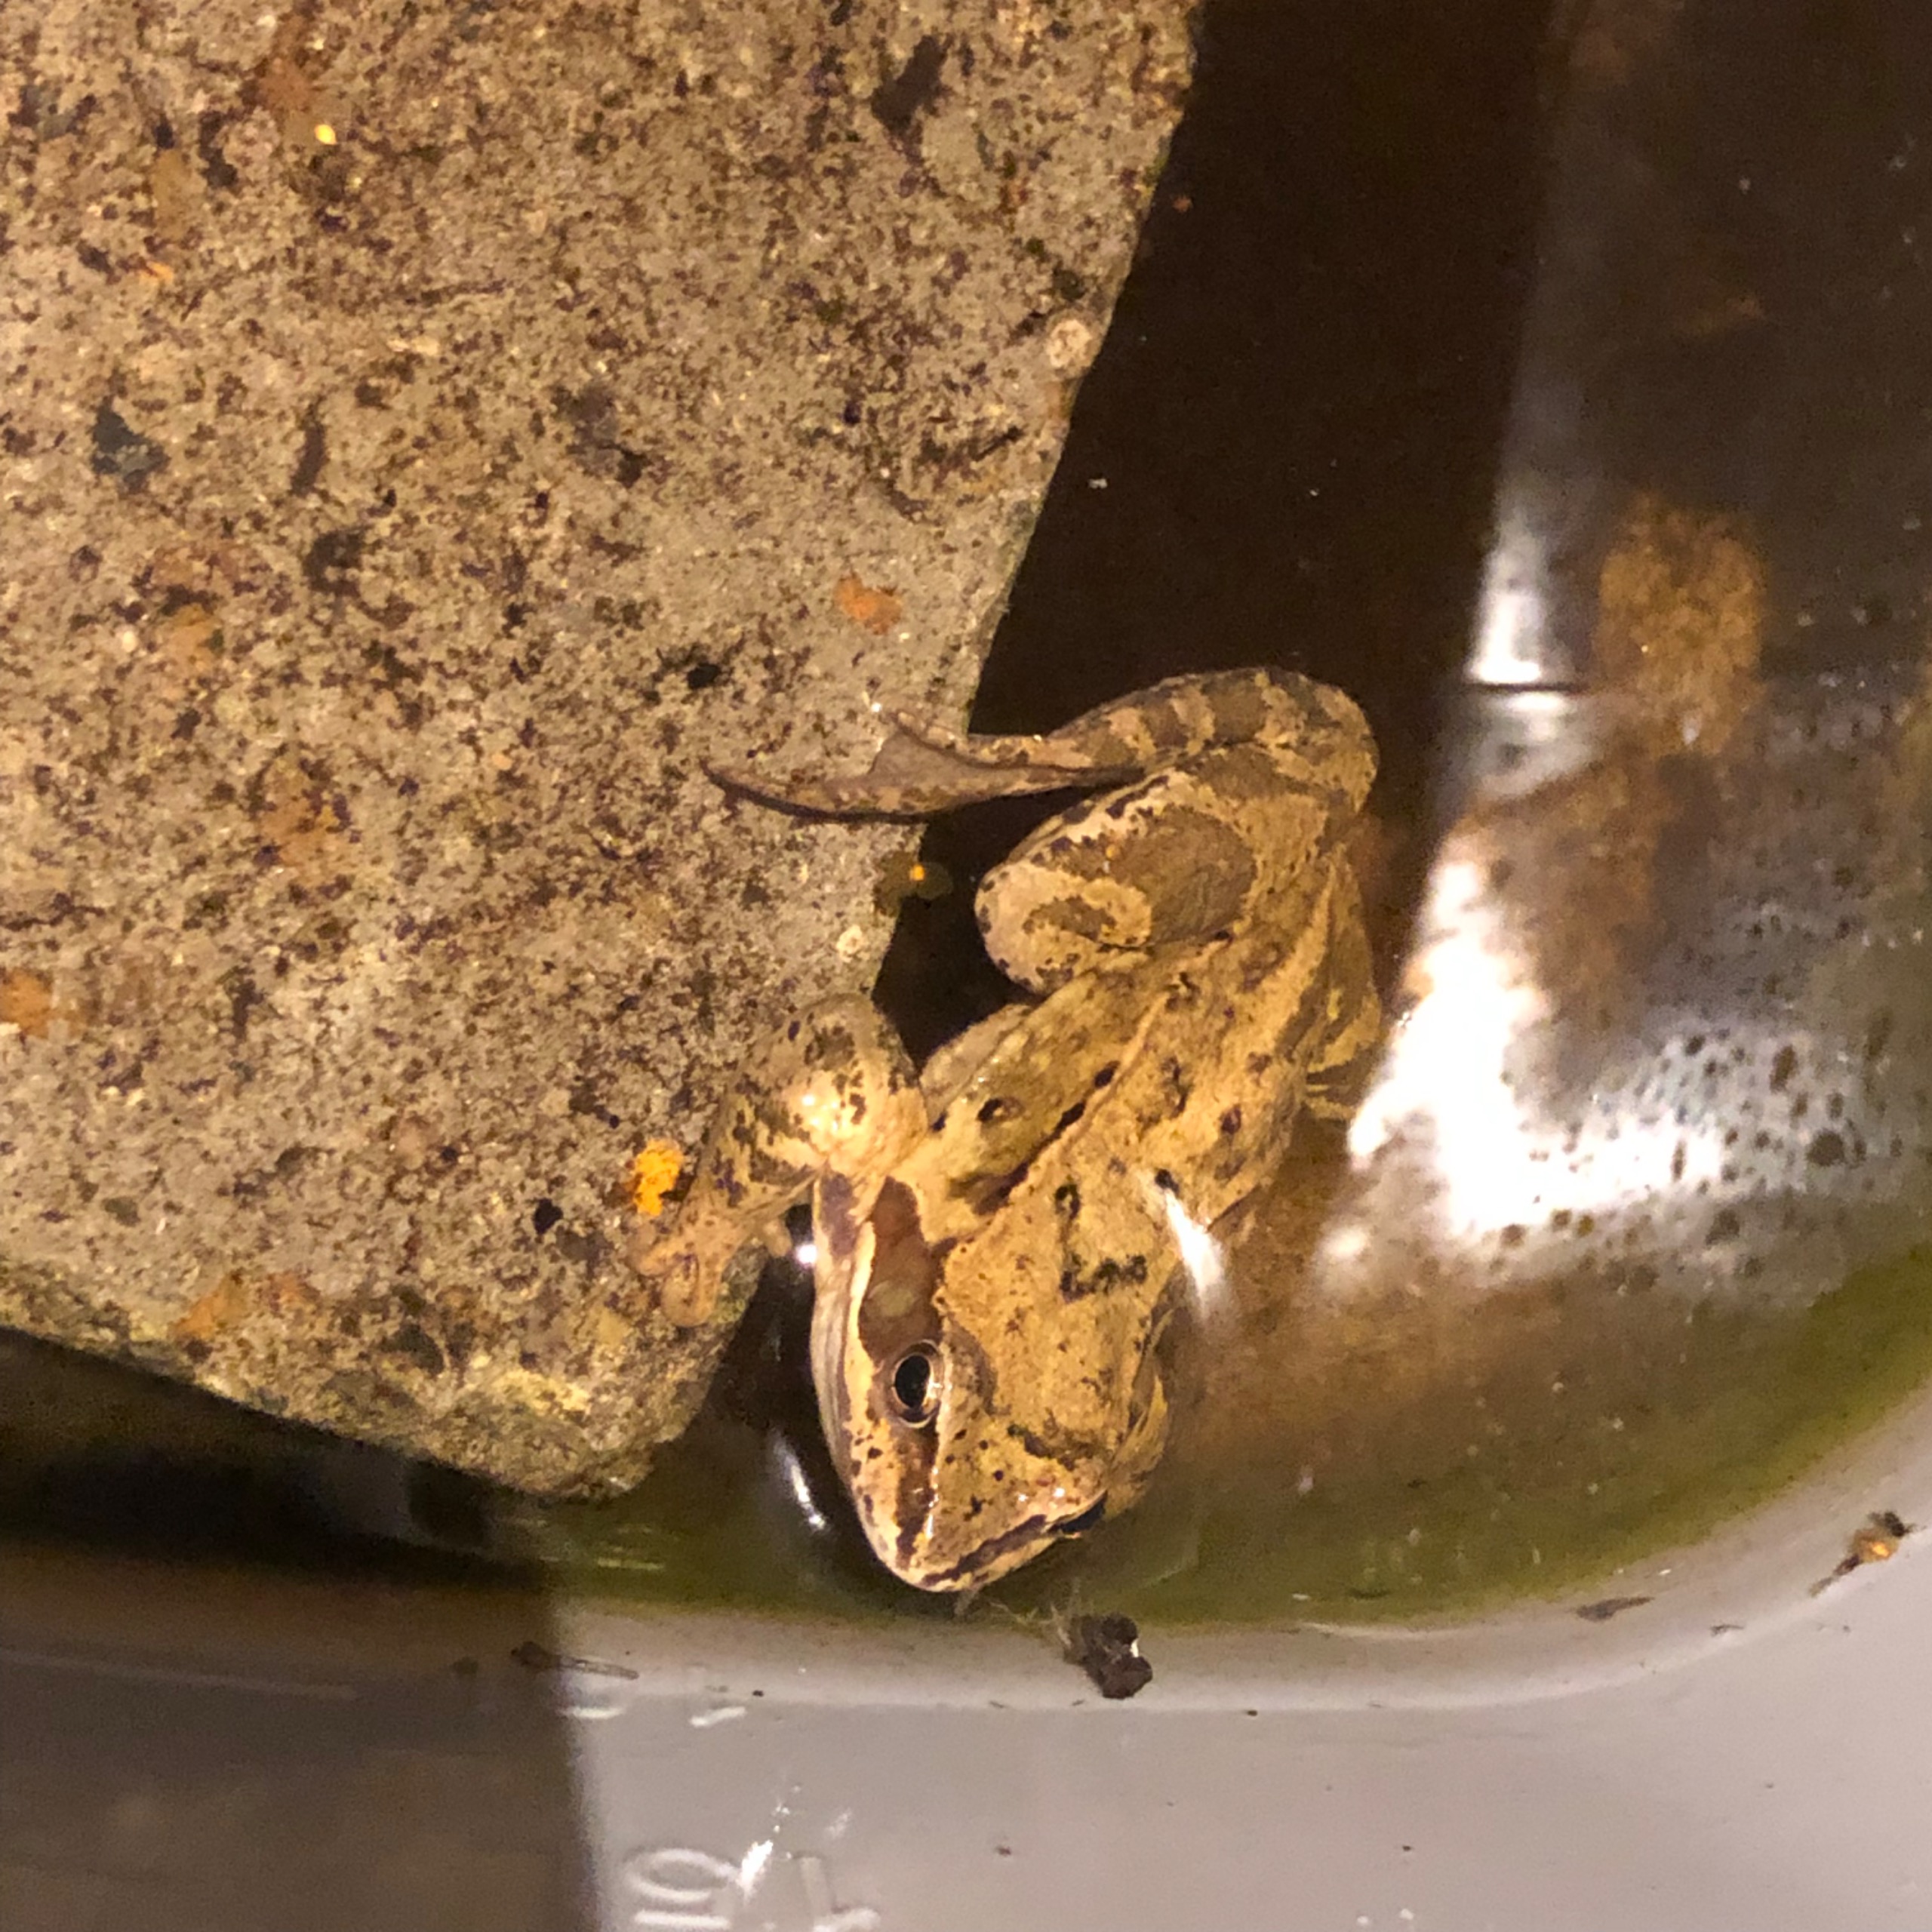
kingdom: Animalia
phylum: Chordata
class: Amphibia
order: Anura
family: Ranidae
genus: Rana
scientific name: Rana temporaria
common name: Butsnudet frø
